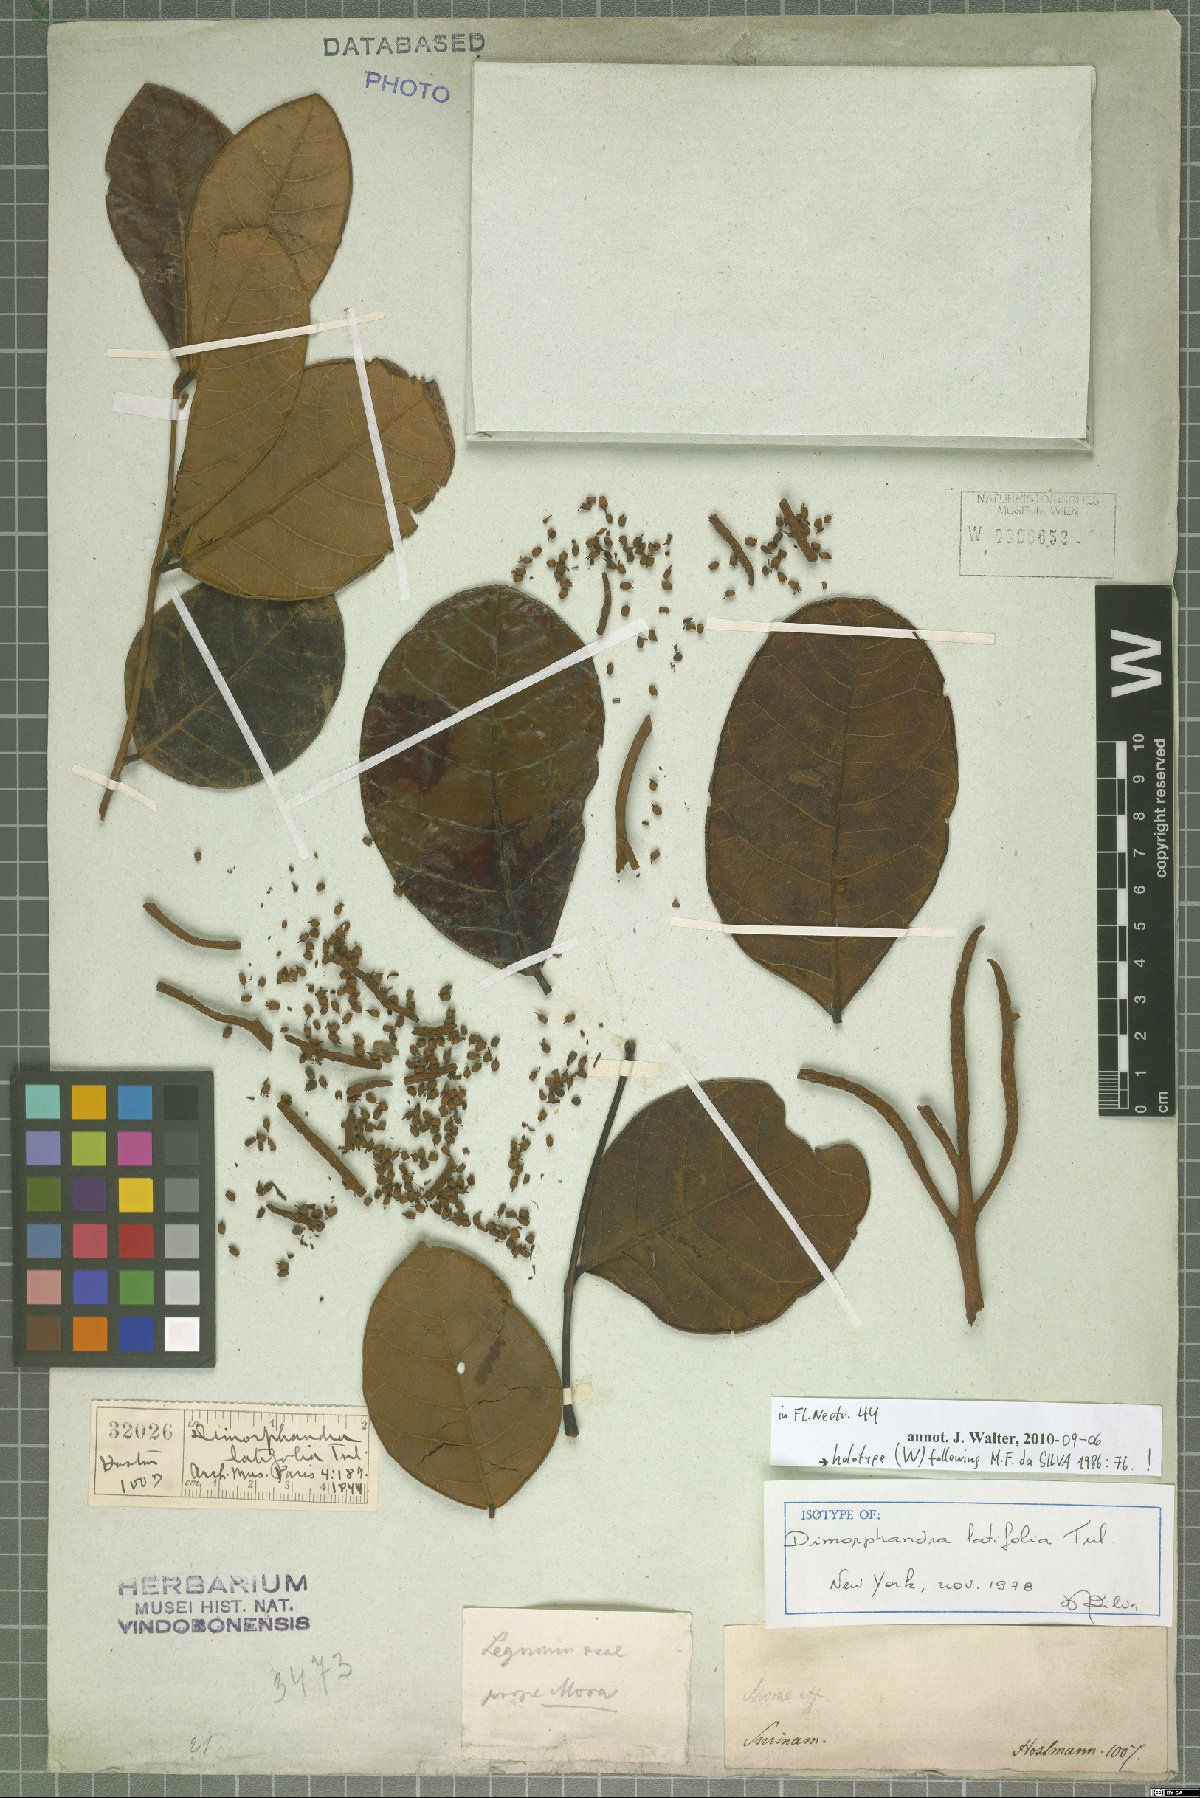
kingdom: Plantae
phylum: Tracheophyta
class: Magnoliopsida
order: Fabales
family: Fabaceae
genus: Dimorphandra
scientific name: Dimorphandra conjugata
